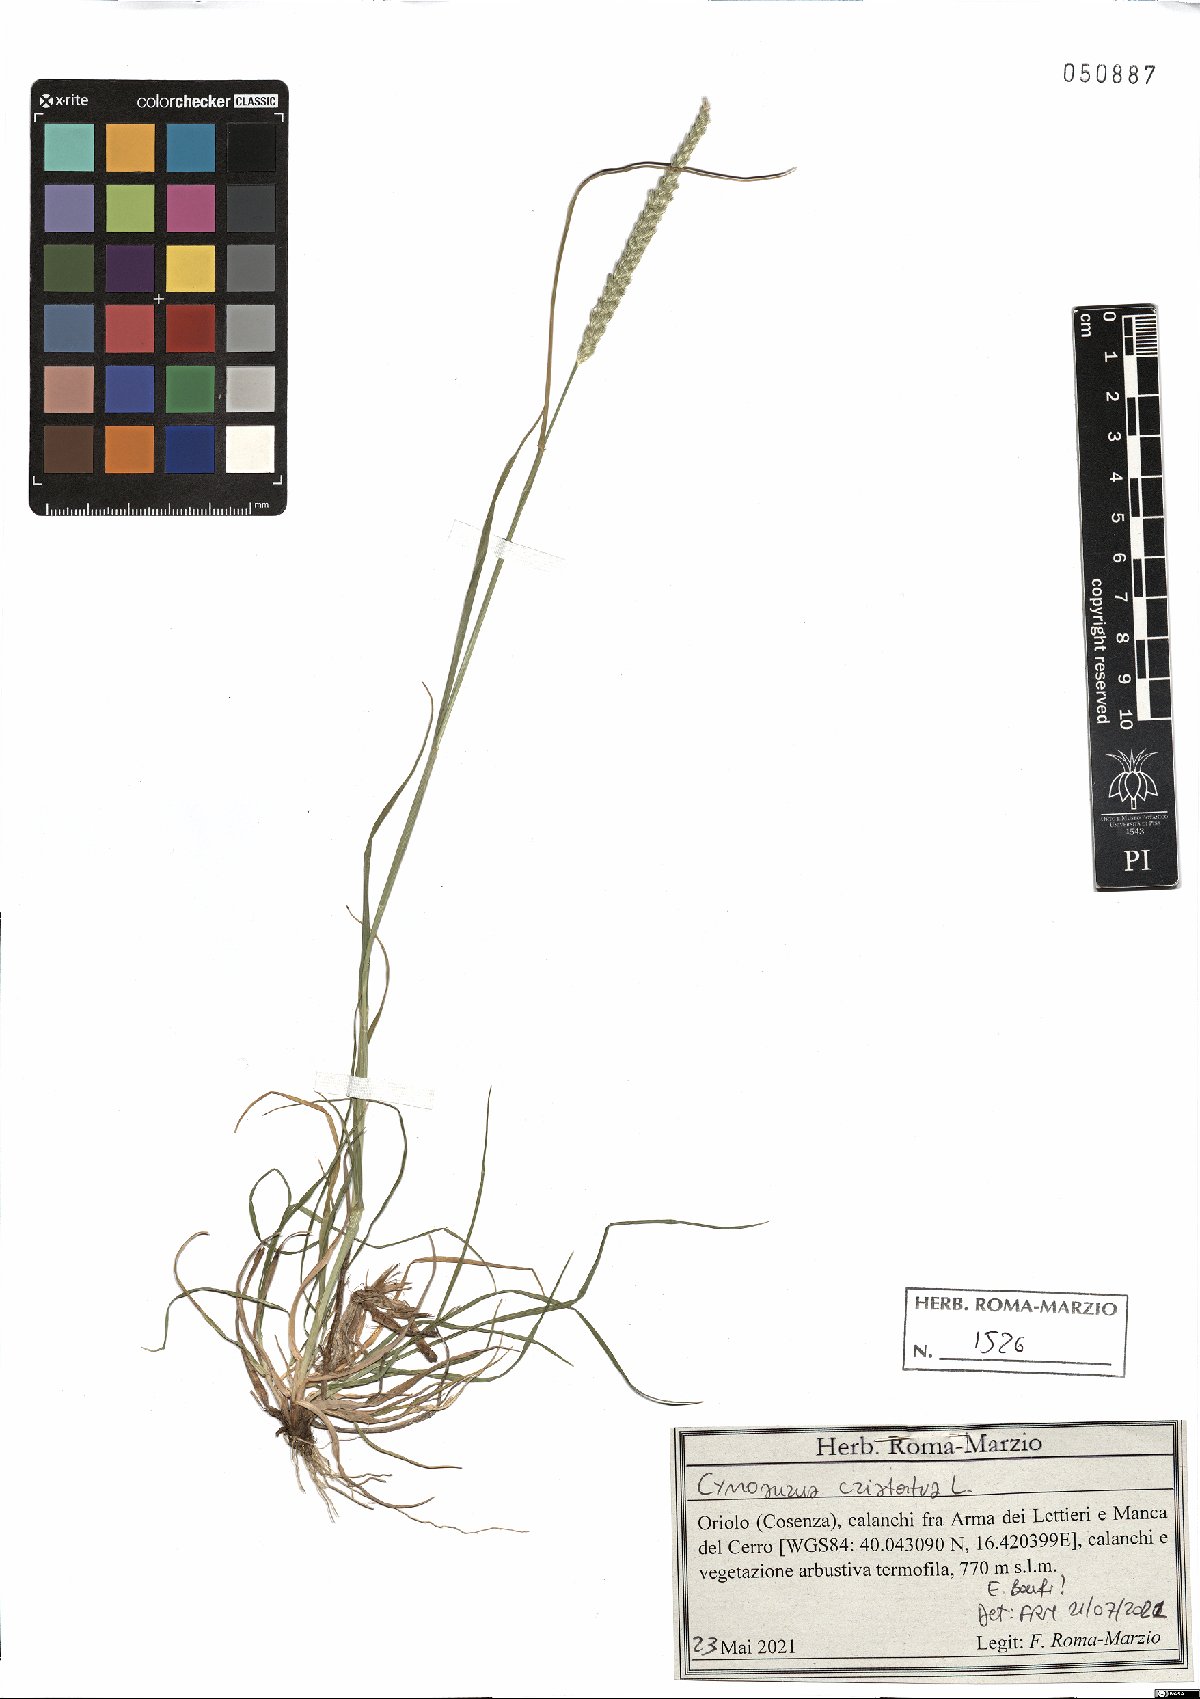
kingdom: Plantae
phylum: Tracheophyta
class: Liliopsida
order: Poales
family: Poaceae
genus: Cynosurus
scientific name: Cynosurus cristatus
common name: Crested dog's-tail
